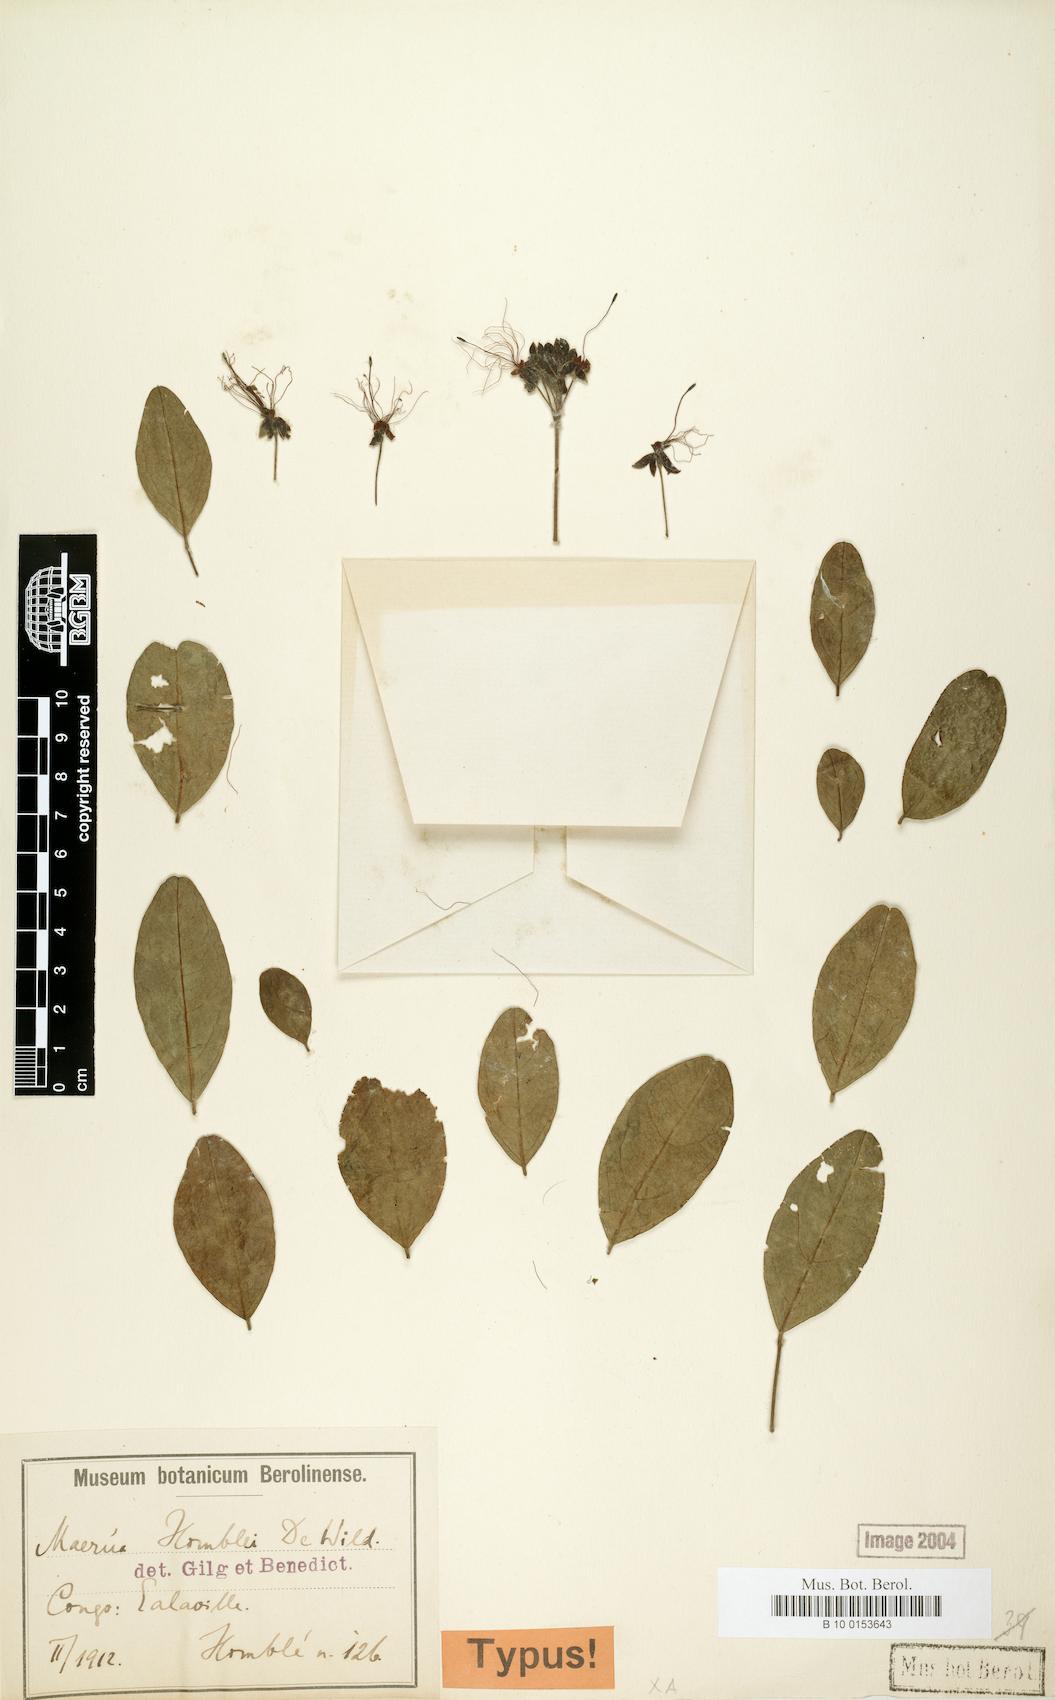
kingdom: Plantae
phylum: Tracheophyta
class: Magnoliopsida
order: Brassicales
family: Capparaceae
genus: Maerua
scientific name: Maerua homblei
